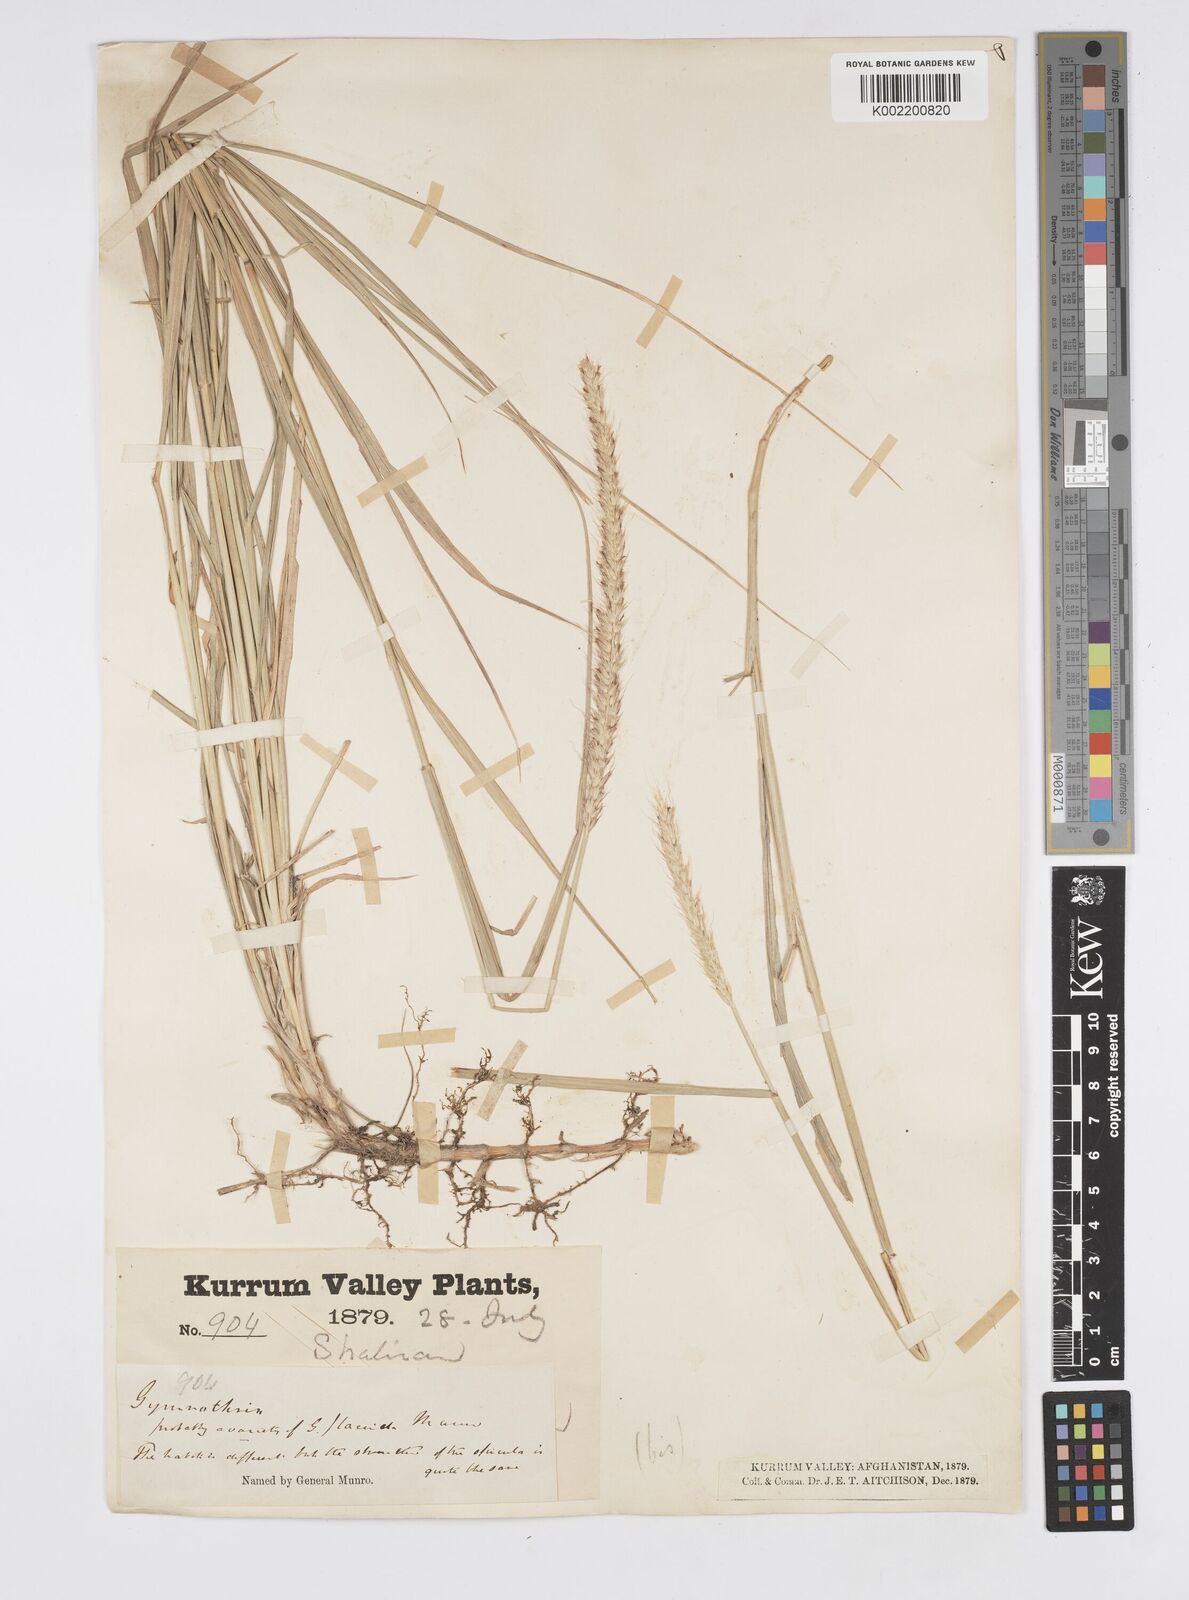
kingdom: Plantae
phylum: Tracheophyta
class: Liliopsida
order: Poales
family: Poaceae
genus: Cenchrus
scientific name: Cenchrus flaccidus
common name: Flaccid grass
